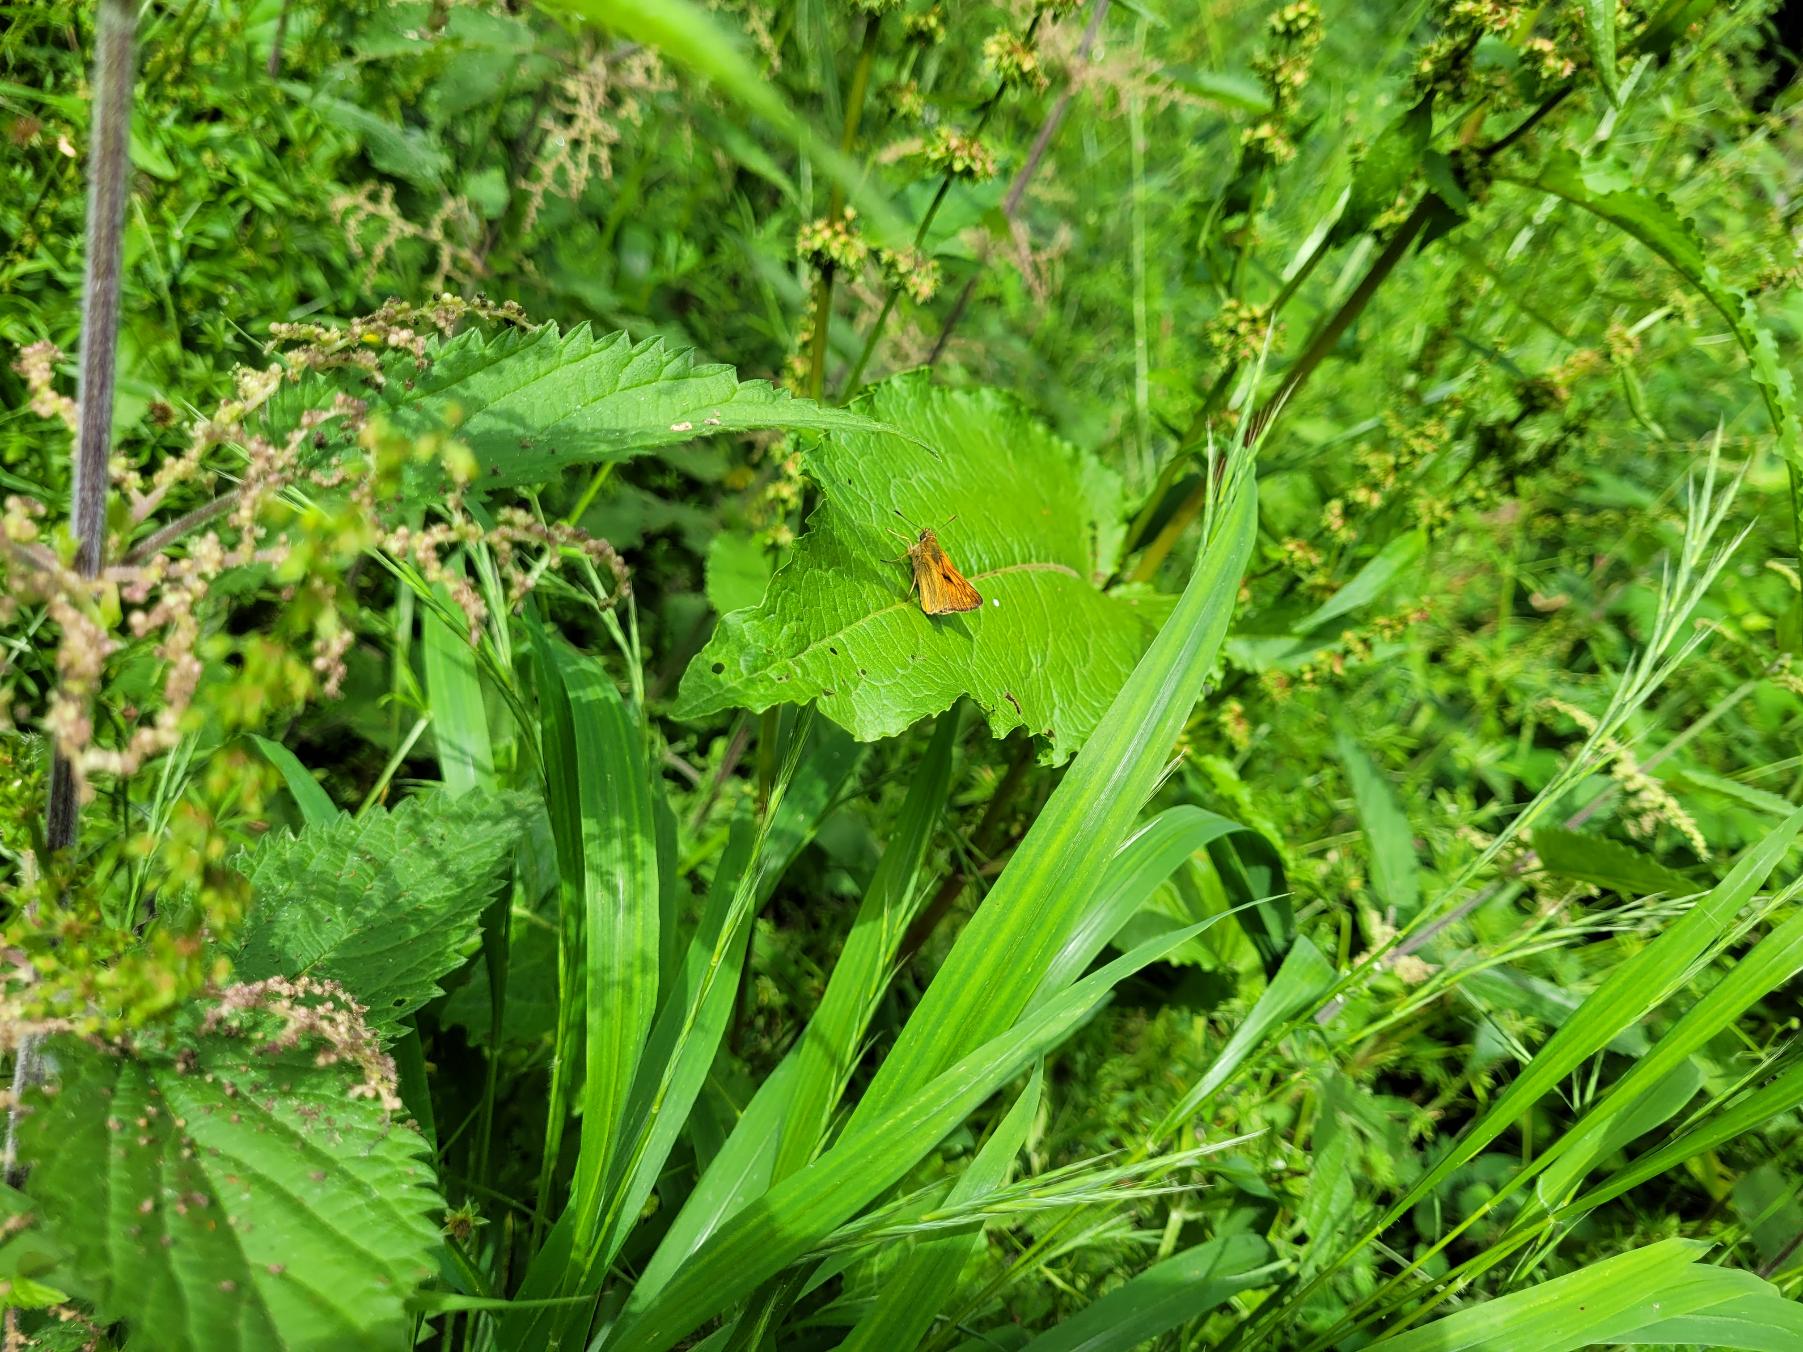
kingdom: Animalia
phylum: Arthropoda
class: Insecta
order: Lepidoptera
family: Hesperiidae
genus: Ochlodes
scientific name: Ochlodes venata
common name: Stor bredpande
